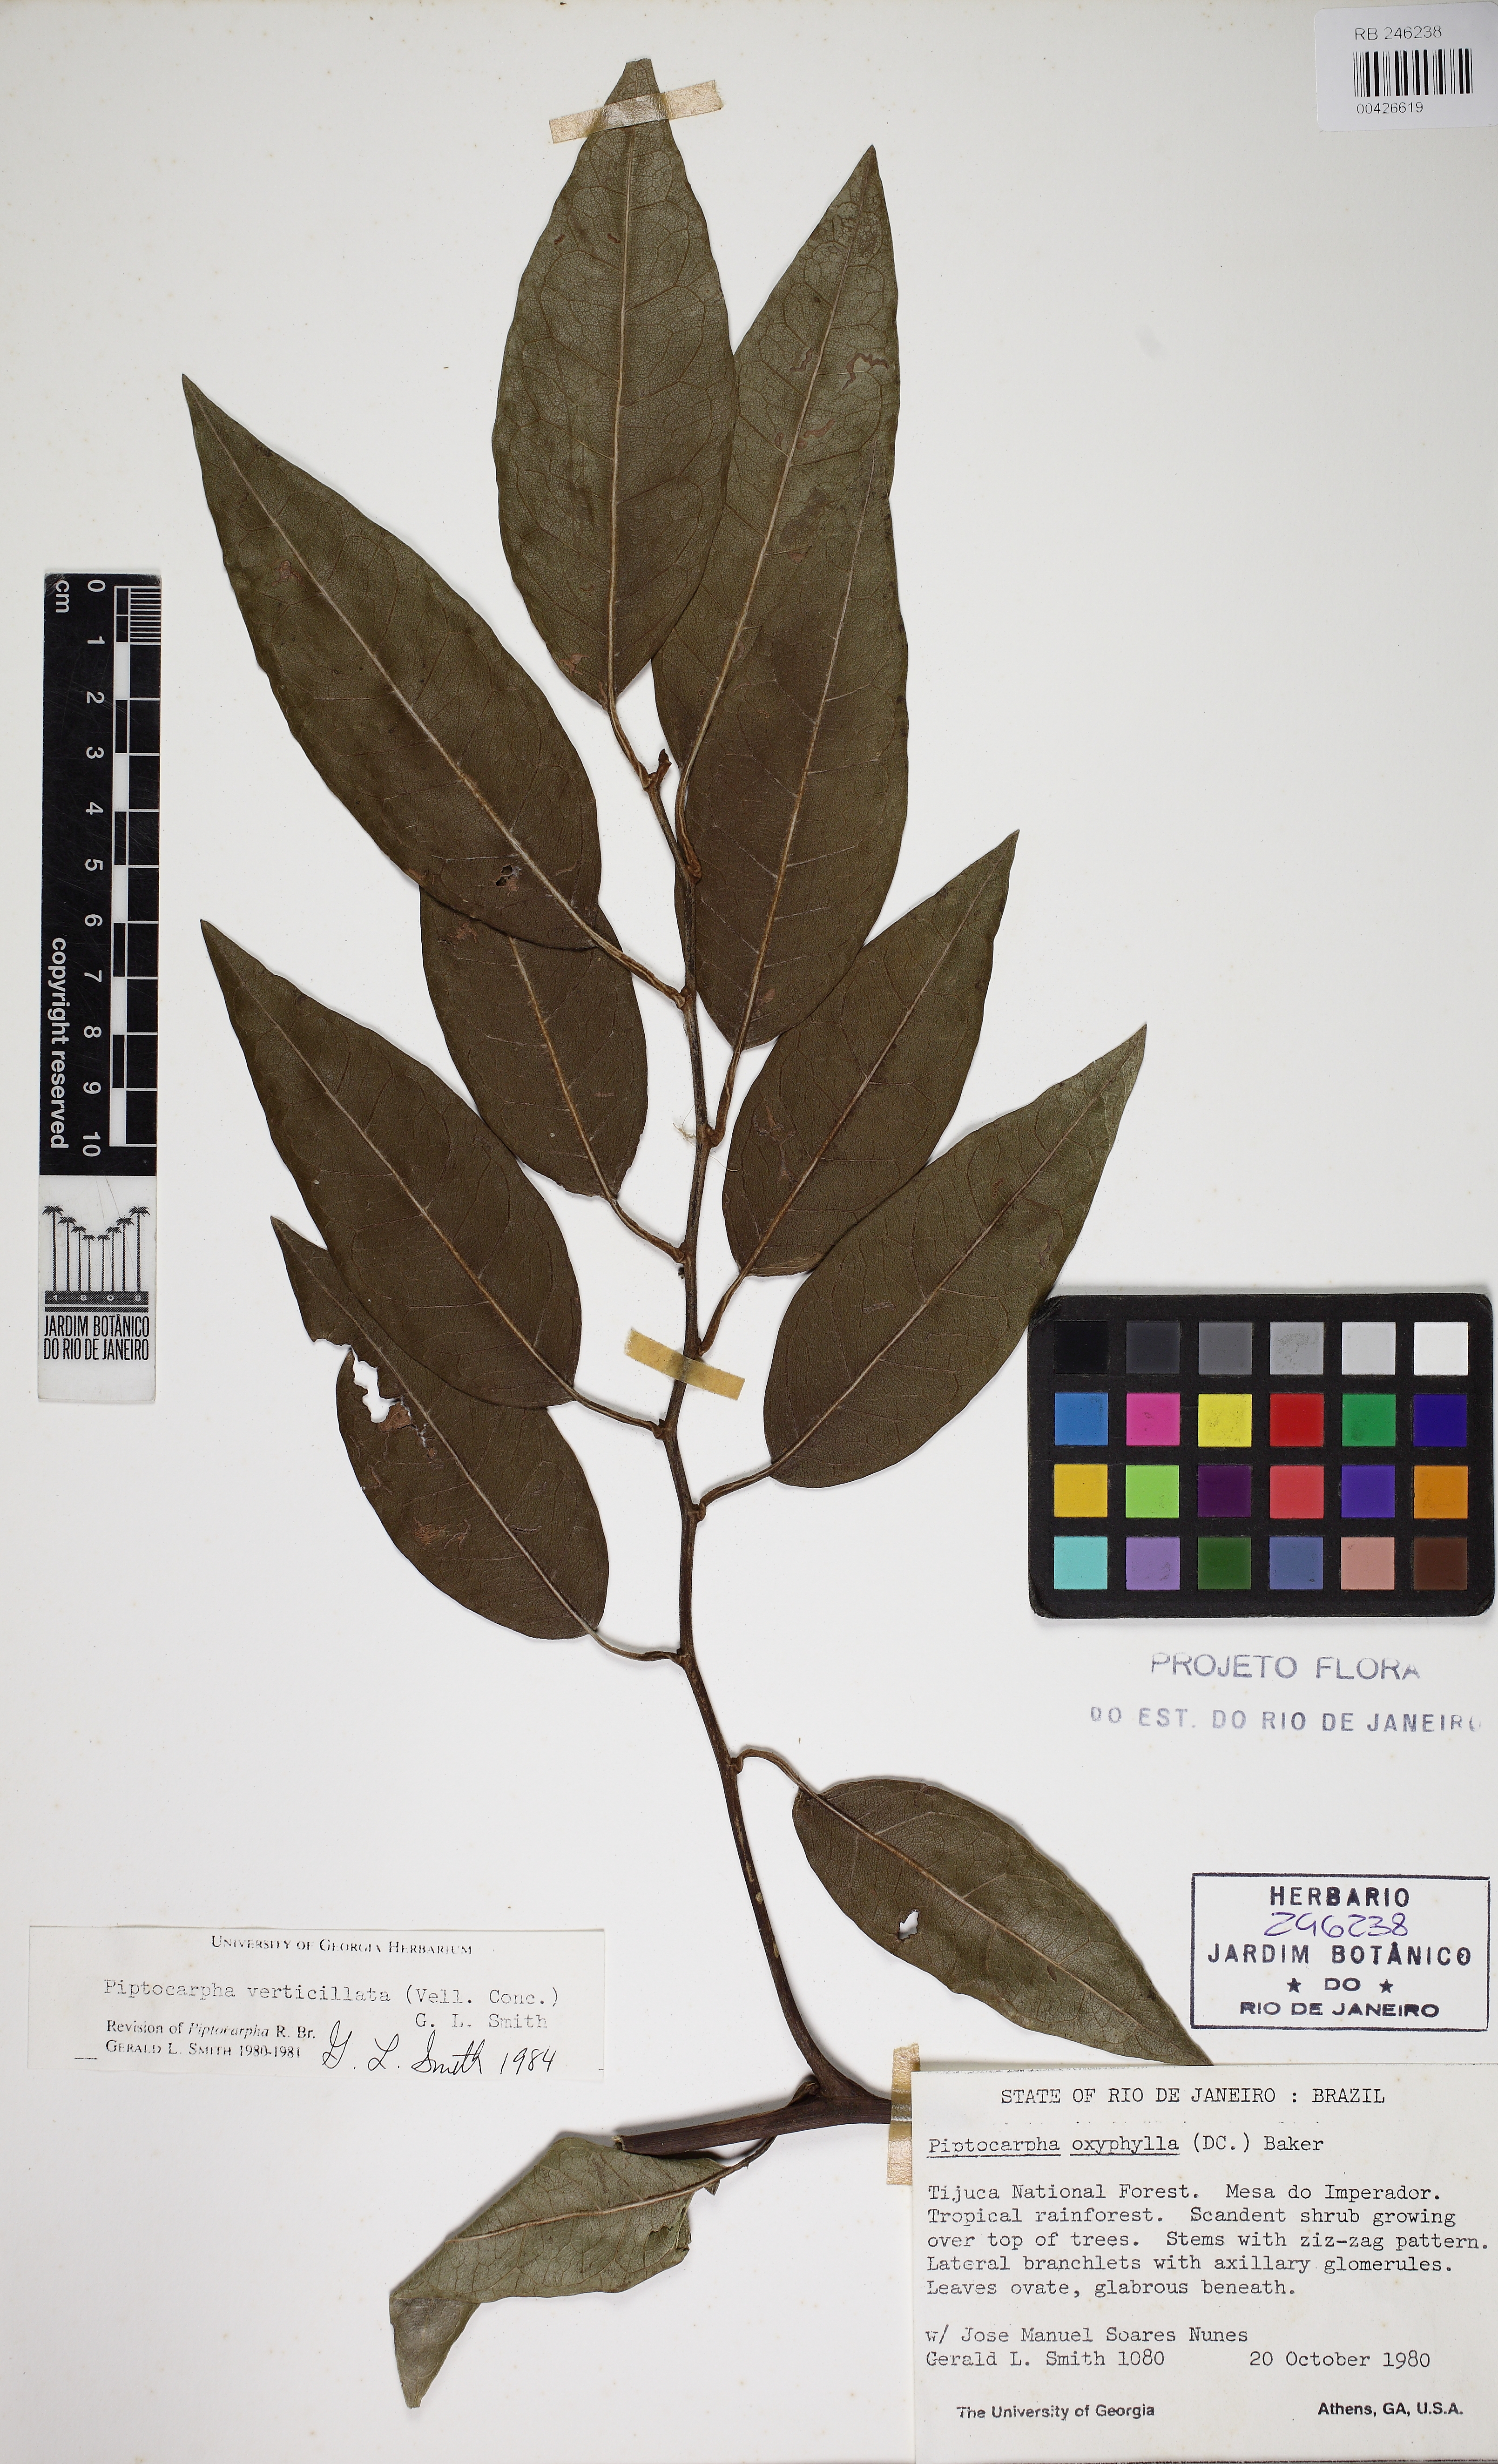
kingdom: Plantae
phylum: Tracheophyta
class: Magnoliopsida
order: Asterales
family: Asteraceae
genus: Piptocarpha
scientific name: Piptocarpha verticillata
